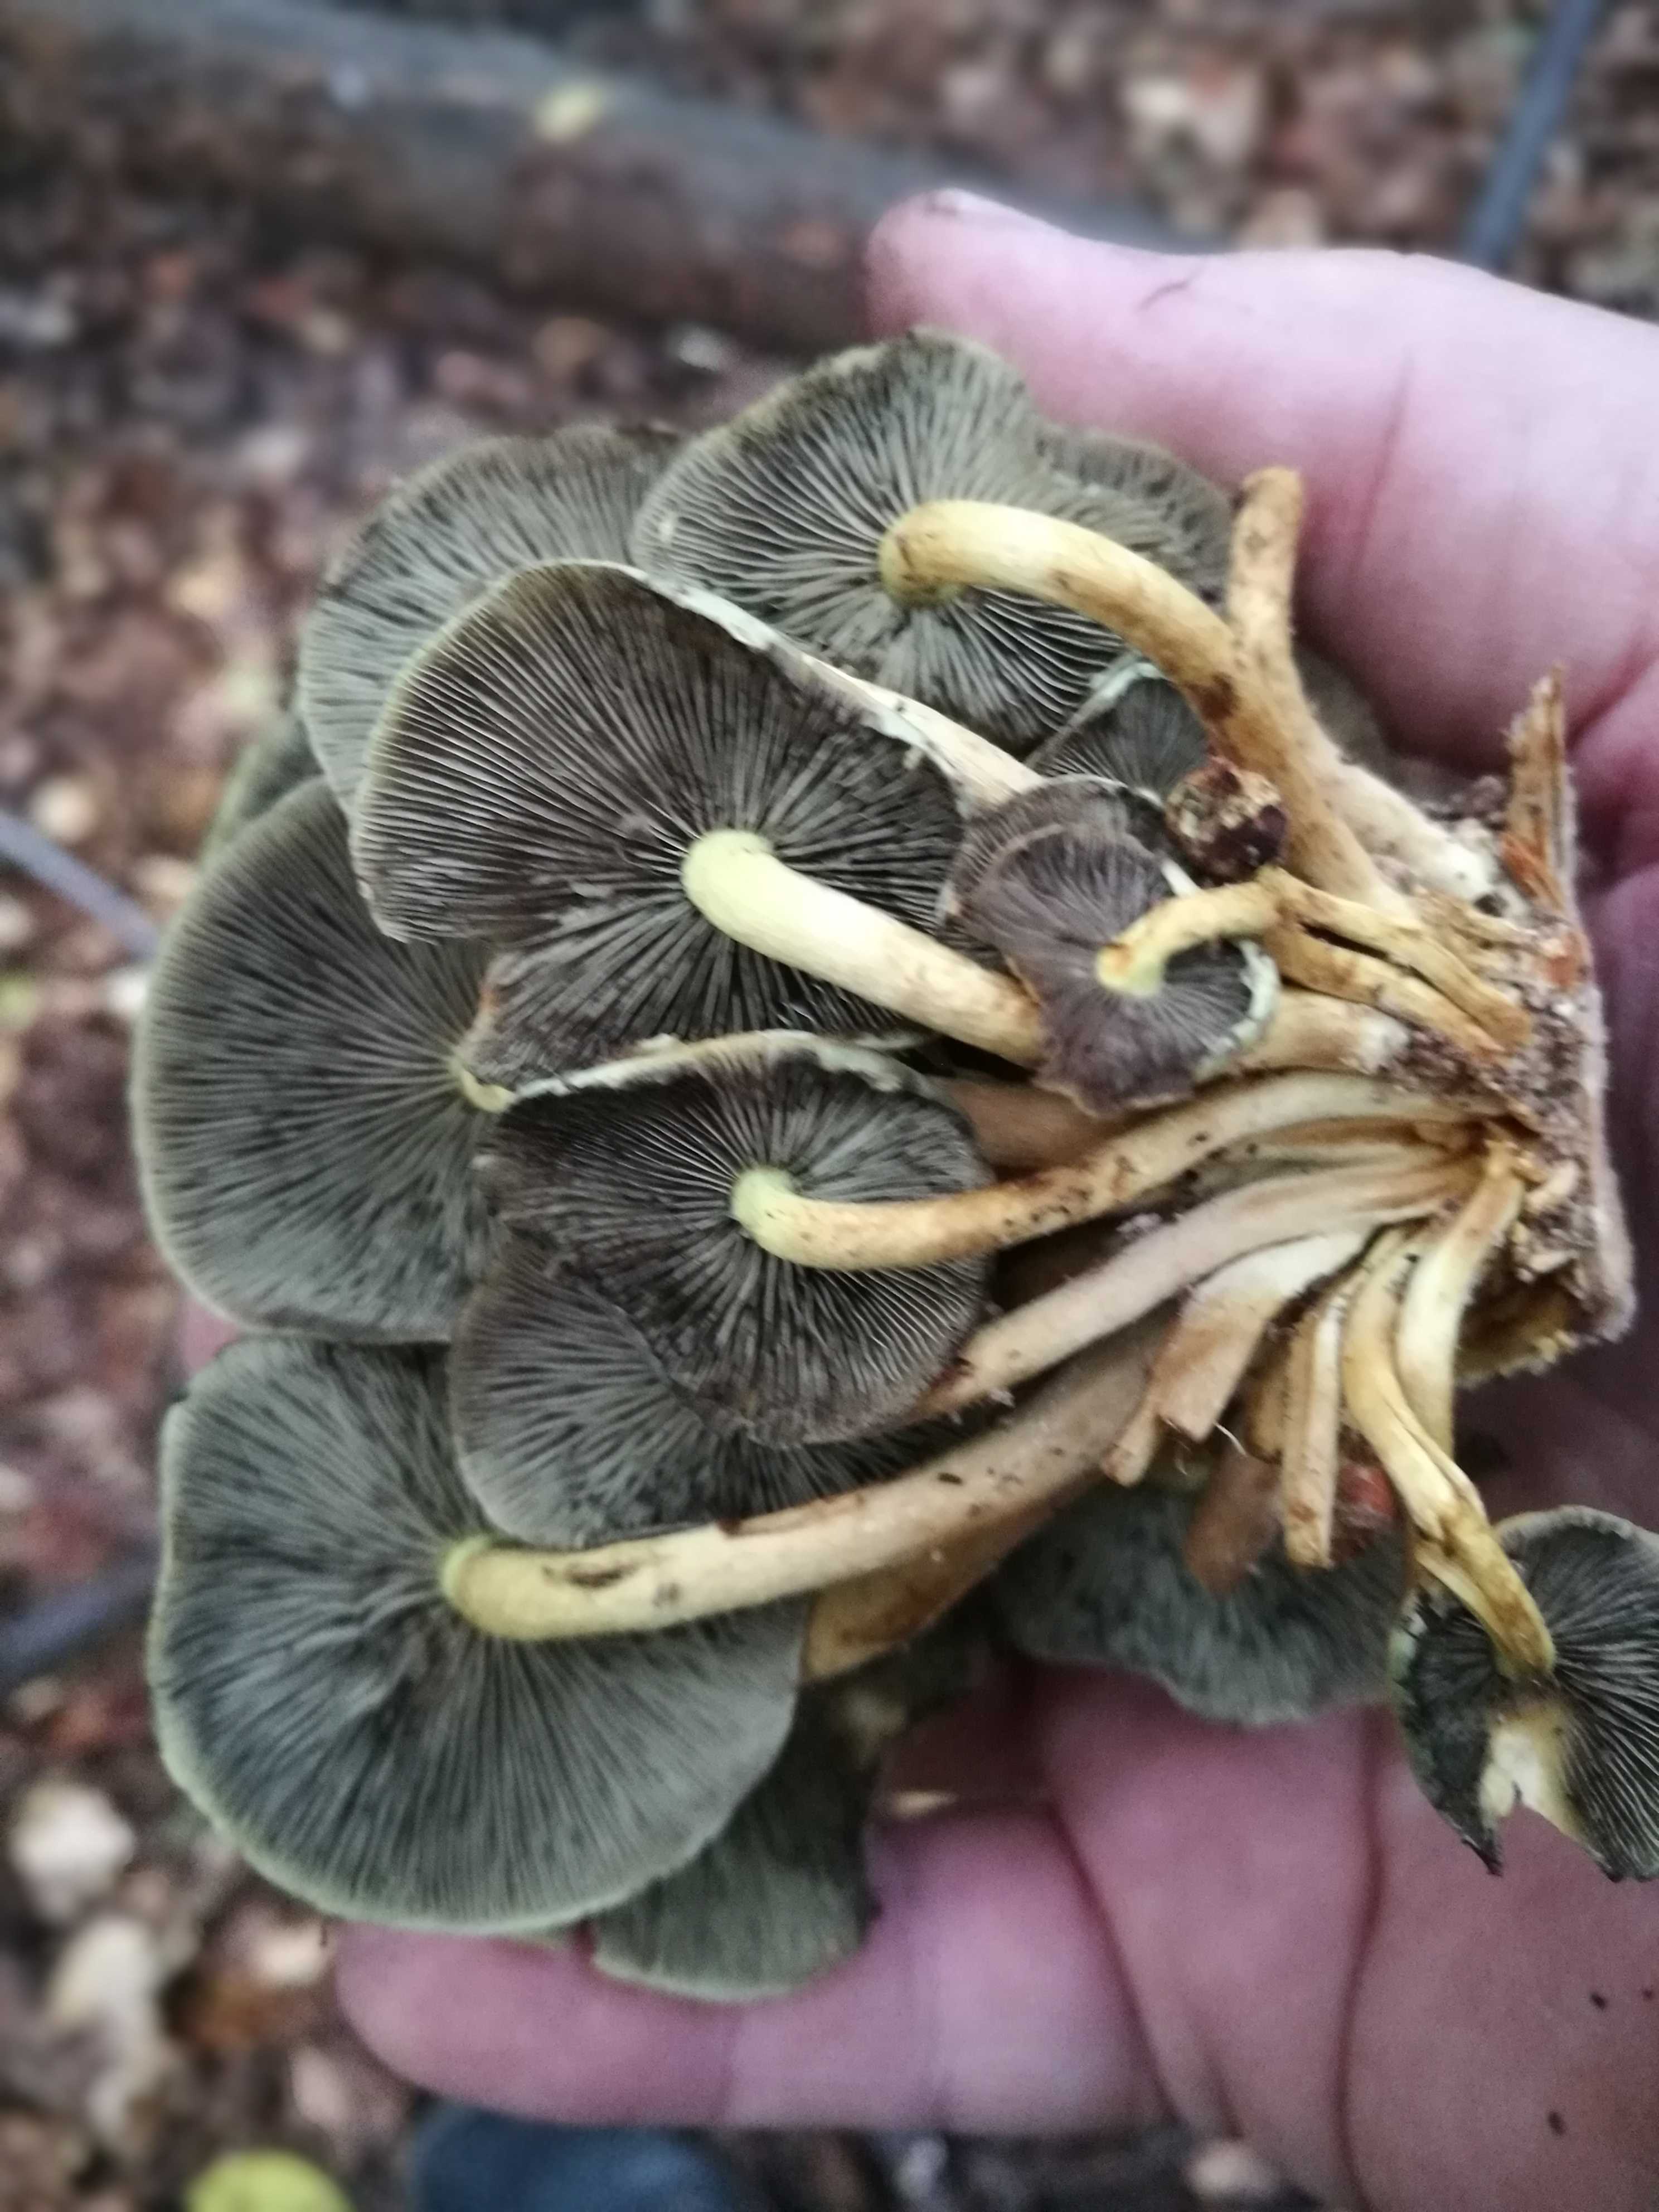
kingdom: Fungi
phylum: Basidiomycota
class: Agaricomycetes
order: Agaricales
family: Strophariaceae
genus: Hypholoma
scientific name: Hypholoma fasciculare
